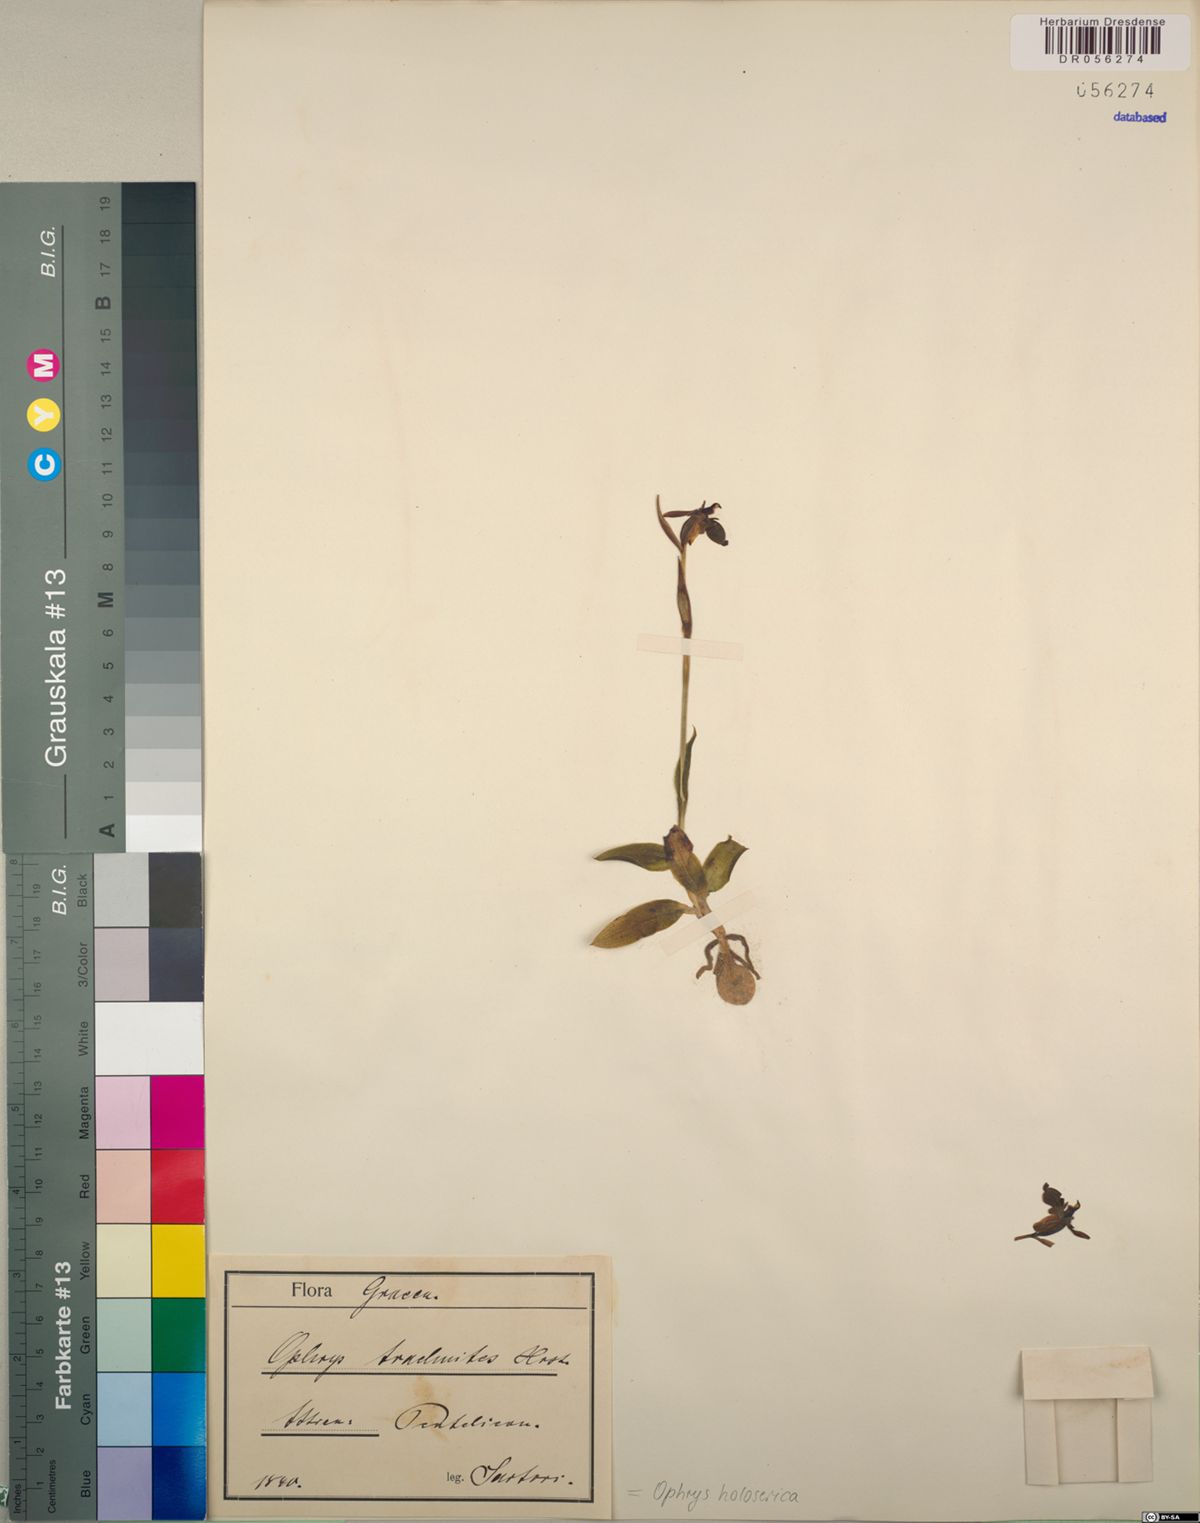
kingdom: Plantae
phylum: Tracheophyta
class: Liliopsida
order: Asparagales
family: Orchidaceae
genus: Ophrys
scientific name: Ophrys holosericea
